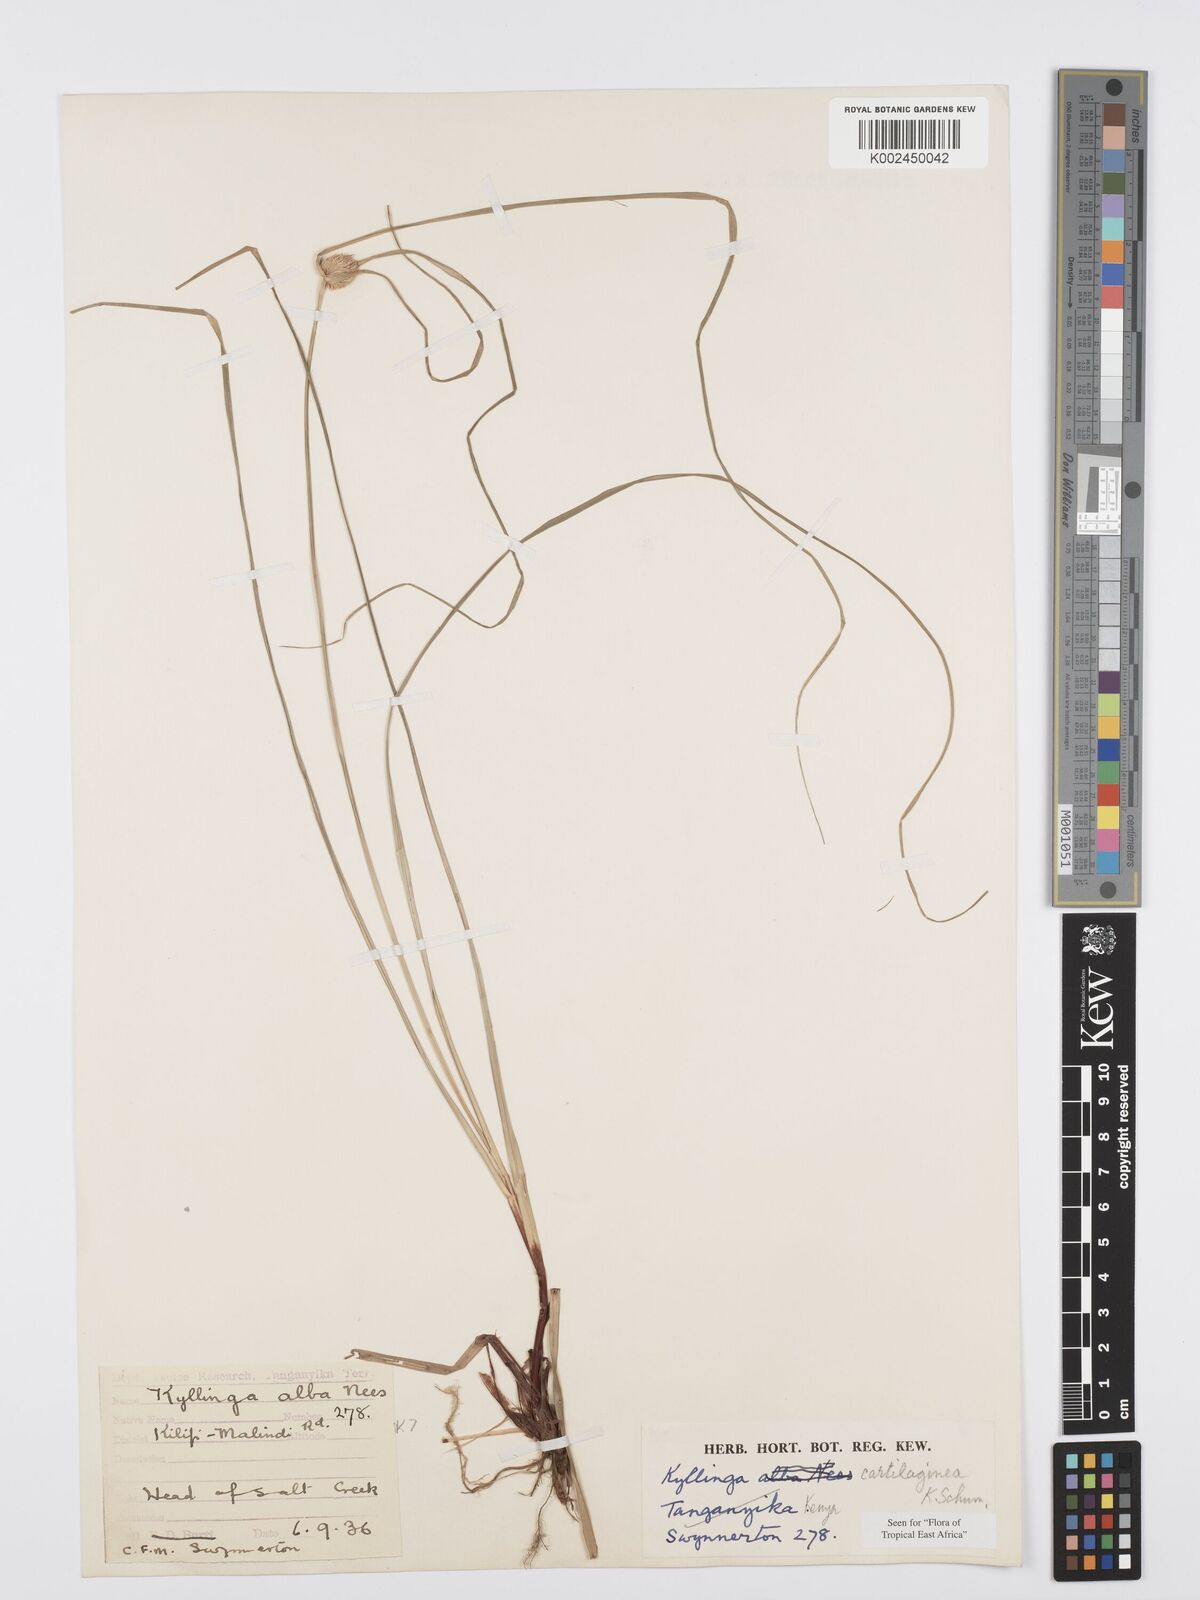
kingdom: Plantae
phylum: Tracheophyta
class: Liliopsida
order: Poales
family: Cyperaceae
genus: Cyperus
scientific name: Cyperus cartilagineus
